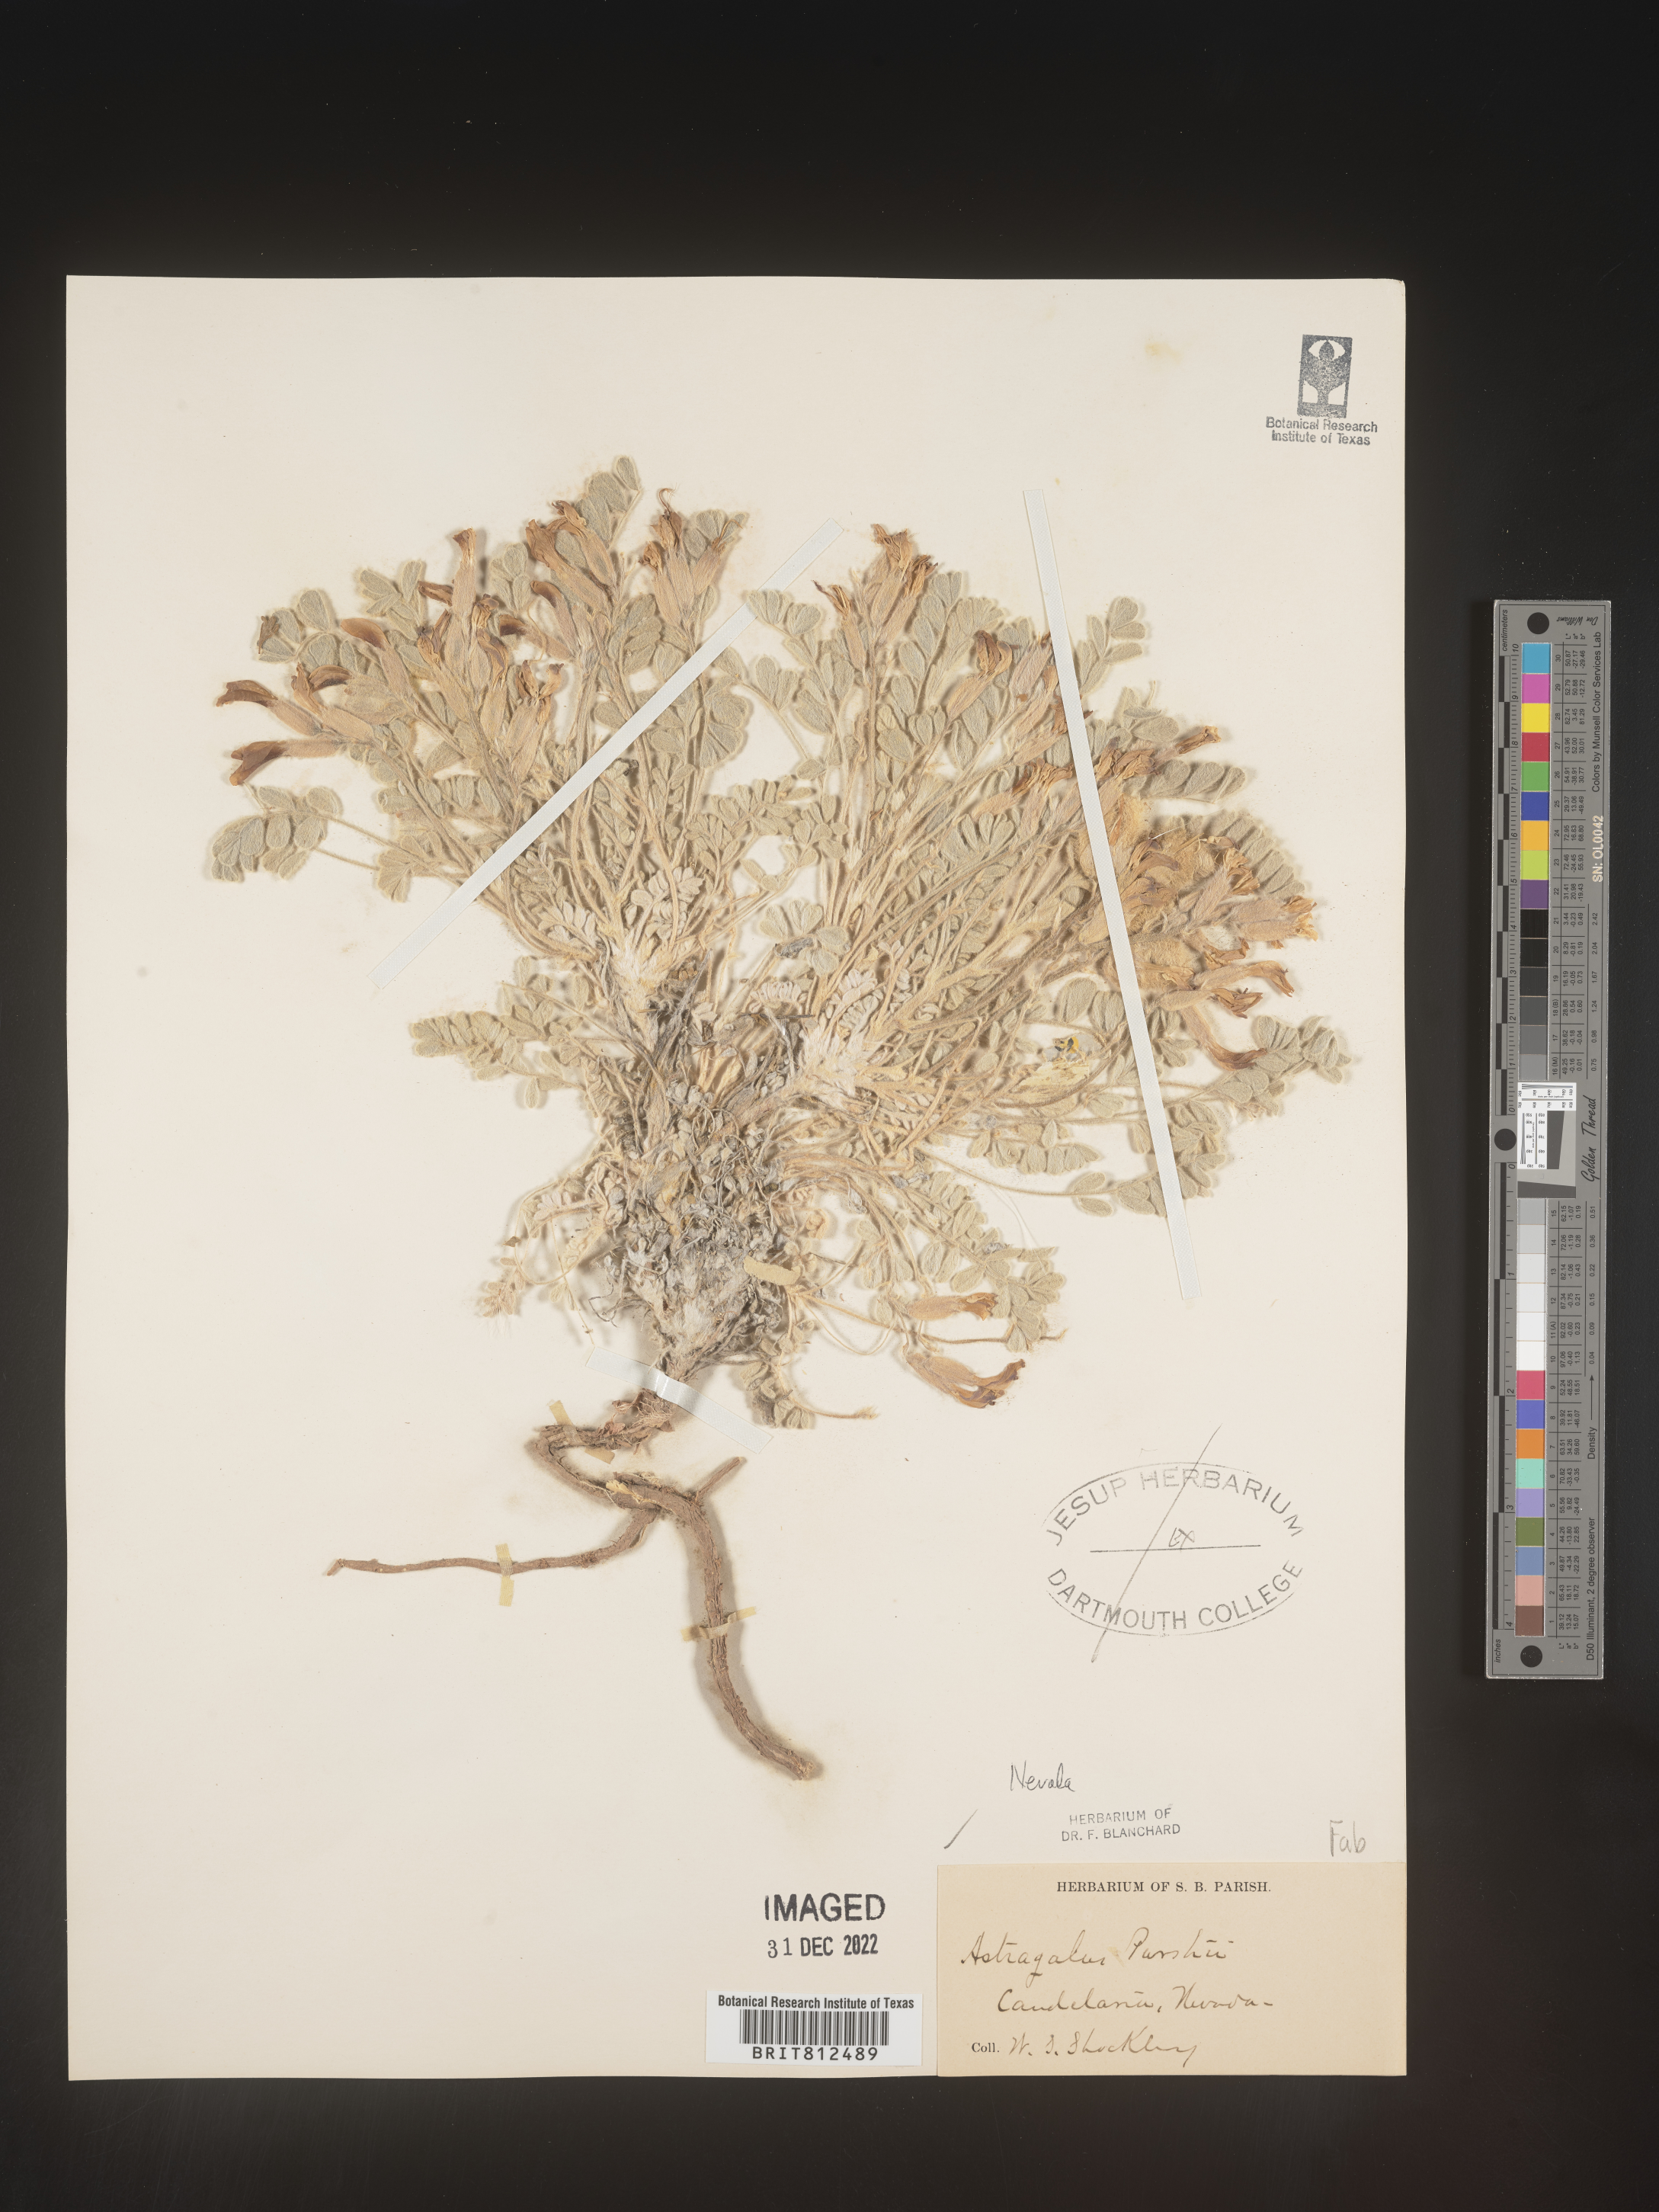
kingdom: Plantae
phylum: Tracheophyta
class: Magnoliopsida
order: Fabales
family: Fabaceae
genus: Astragalus
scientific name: Astragalus leucolobus
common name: Big bear valley woollypod
